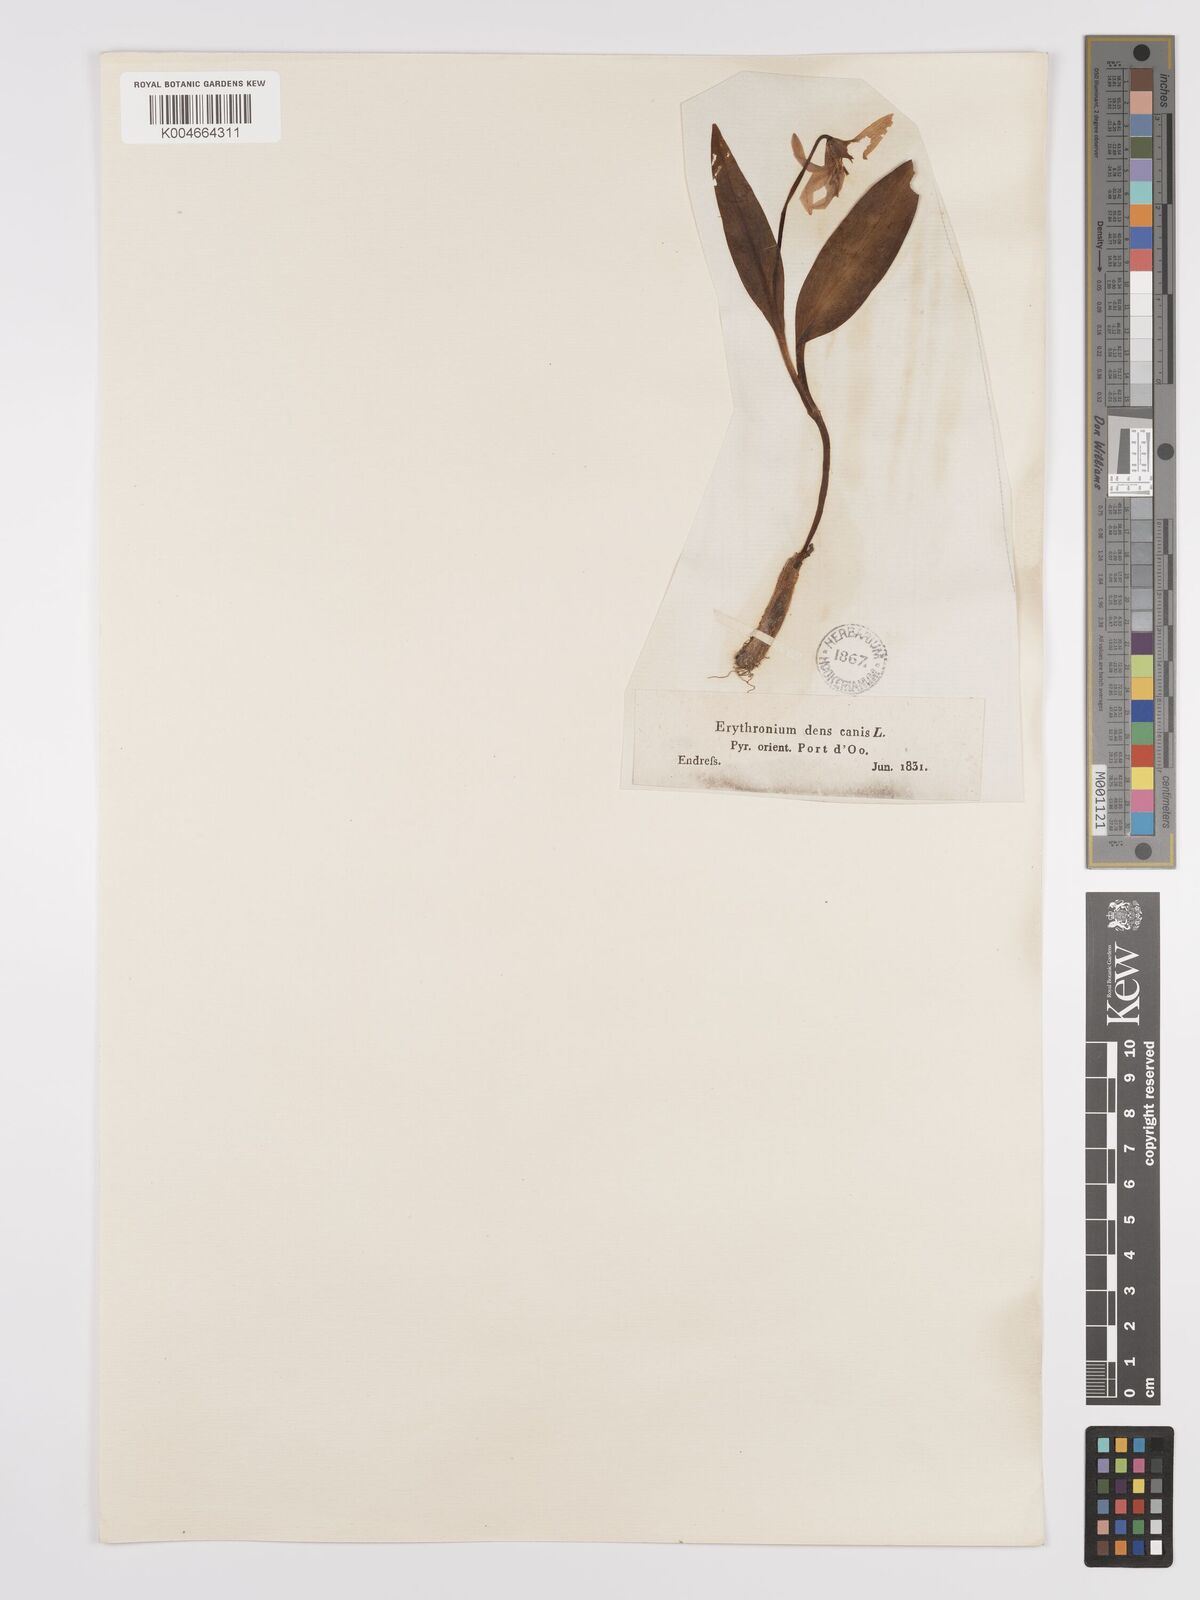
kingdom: Plantae
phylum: Tracheophyta
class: Liliopsida
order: Liliales
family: Liliaceae
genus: Erythronium
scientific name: Erythronium dens-canis
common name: Dog's-tooth-violet
